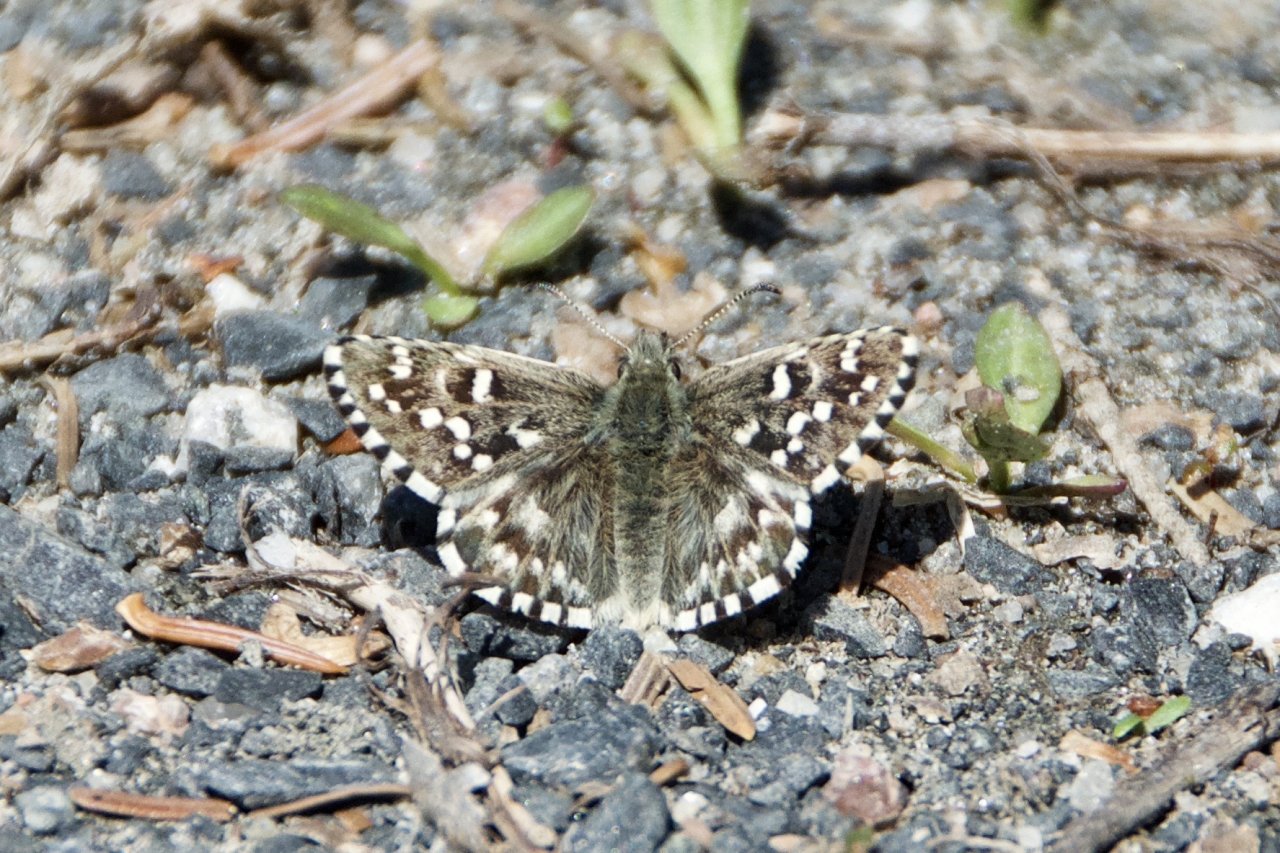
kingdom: Animalia
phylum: Arthropoda
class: Insecta
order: Lepidoptera
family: Hesperiidae
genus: Pyrgus
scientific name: Pyrgus centaureae
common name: Grizzled Skipper
